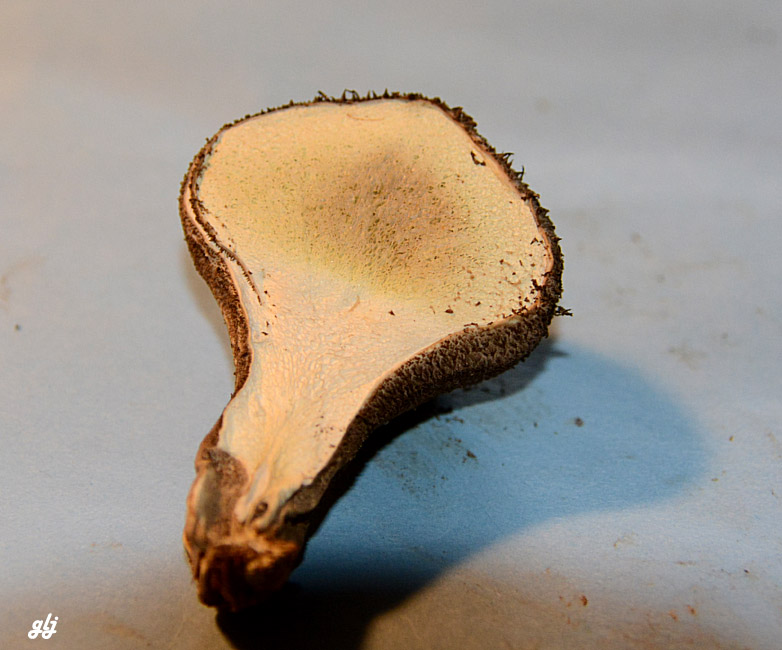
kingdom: Fungi
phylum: Basidiomycota
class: Agaricomycetes
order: Agaricales
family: Lycoperdaceae
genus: Lycoperdon
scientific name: Lycoperdon nigrescens
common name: sortagtig støvbold
